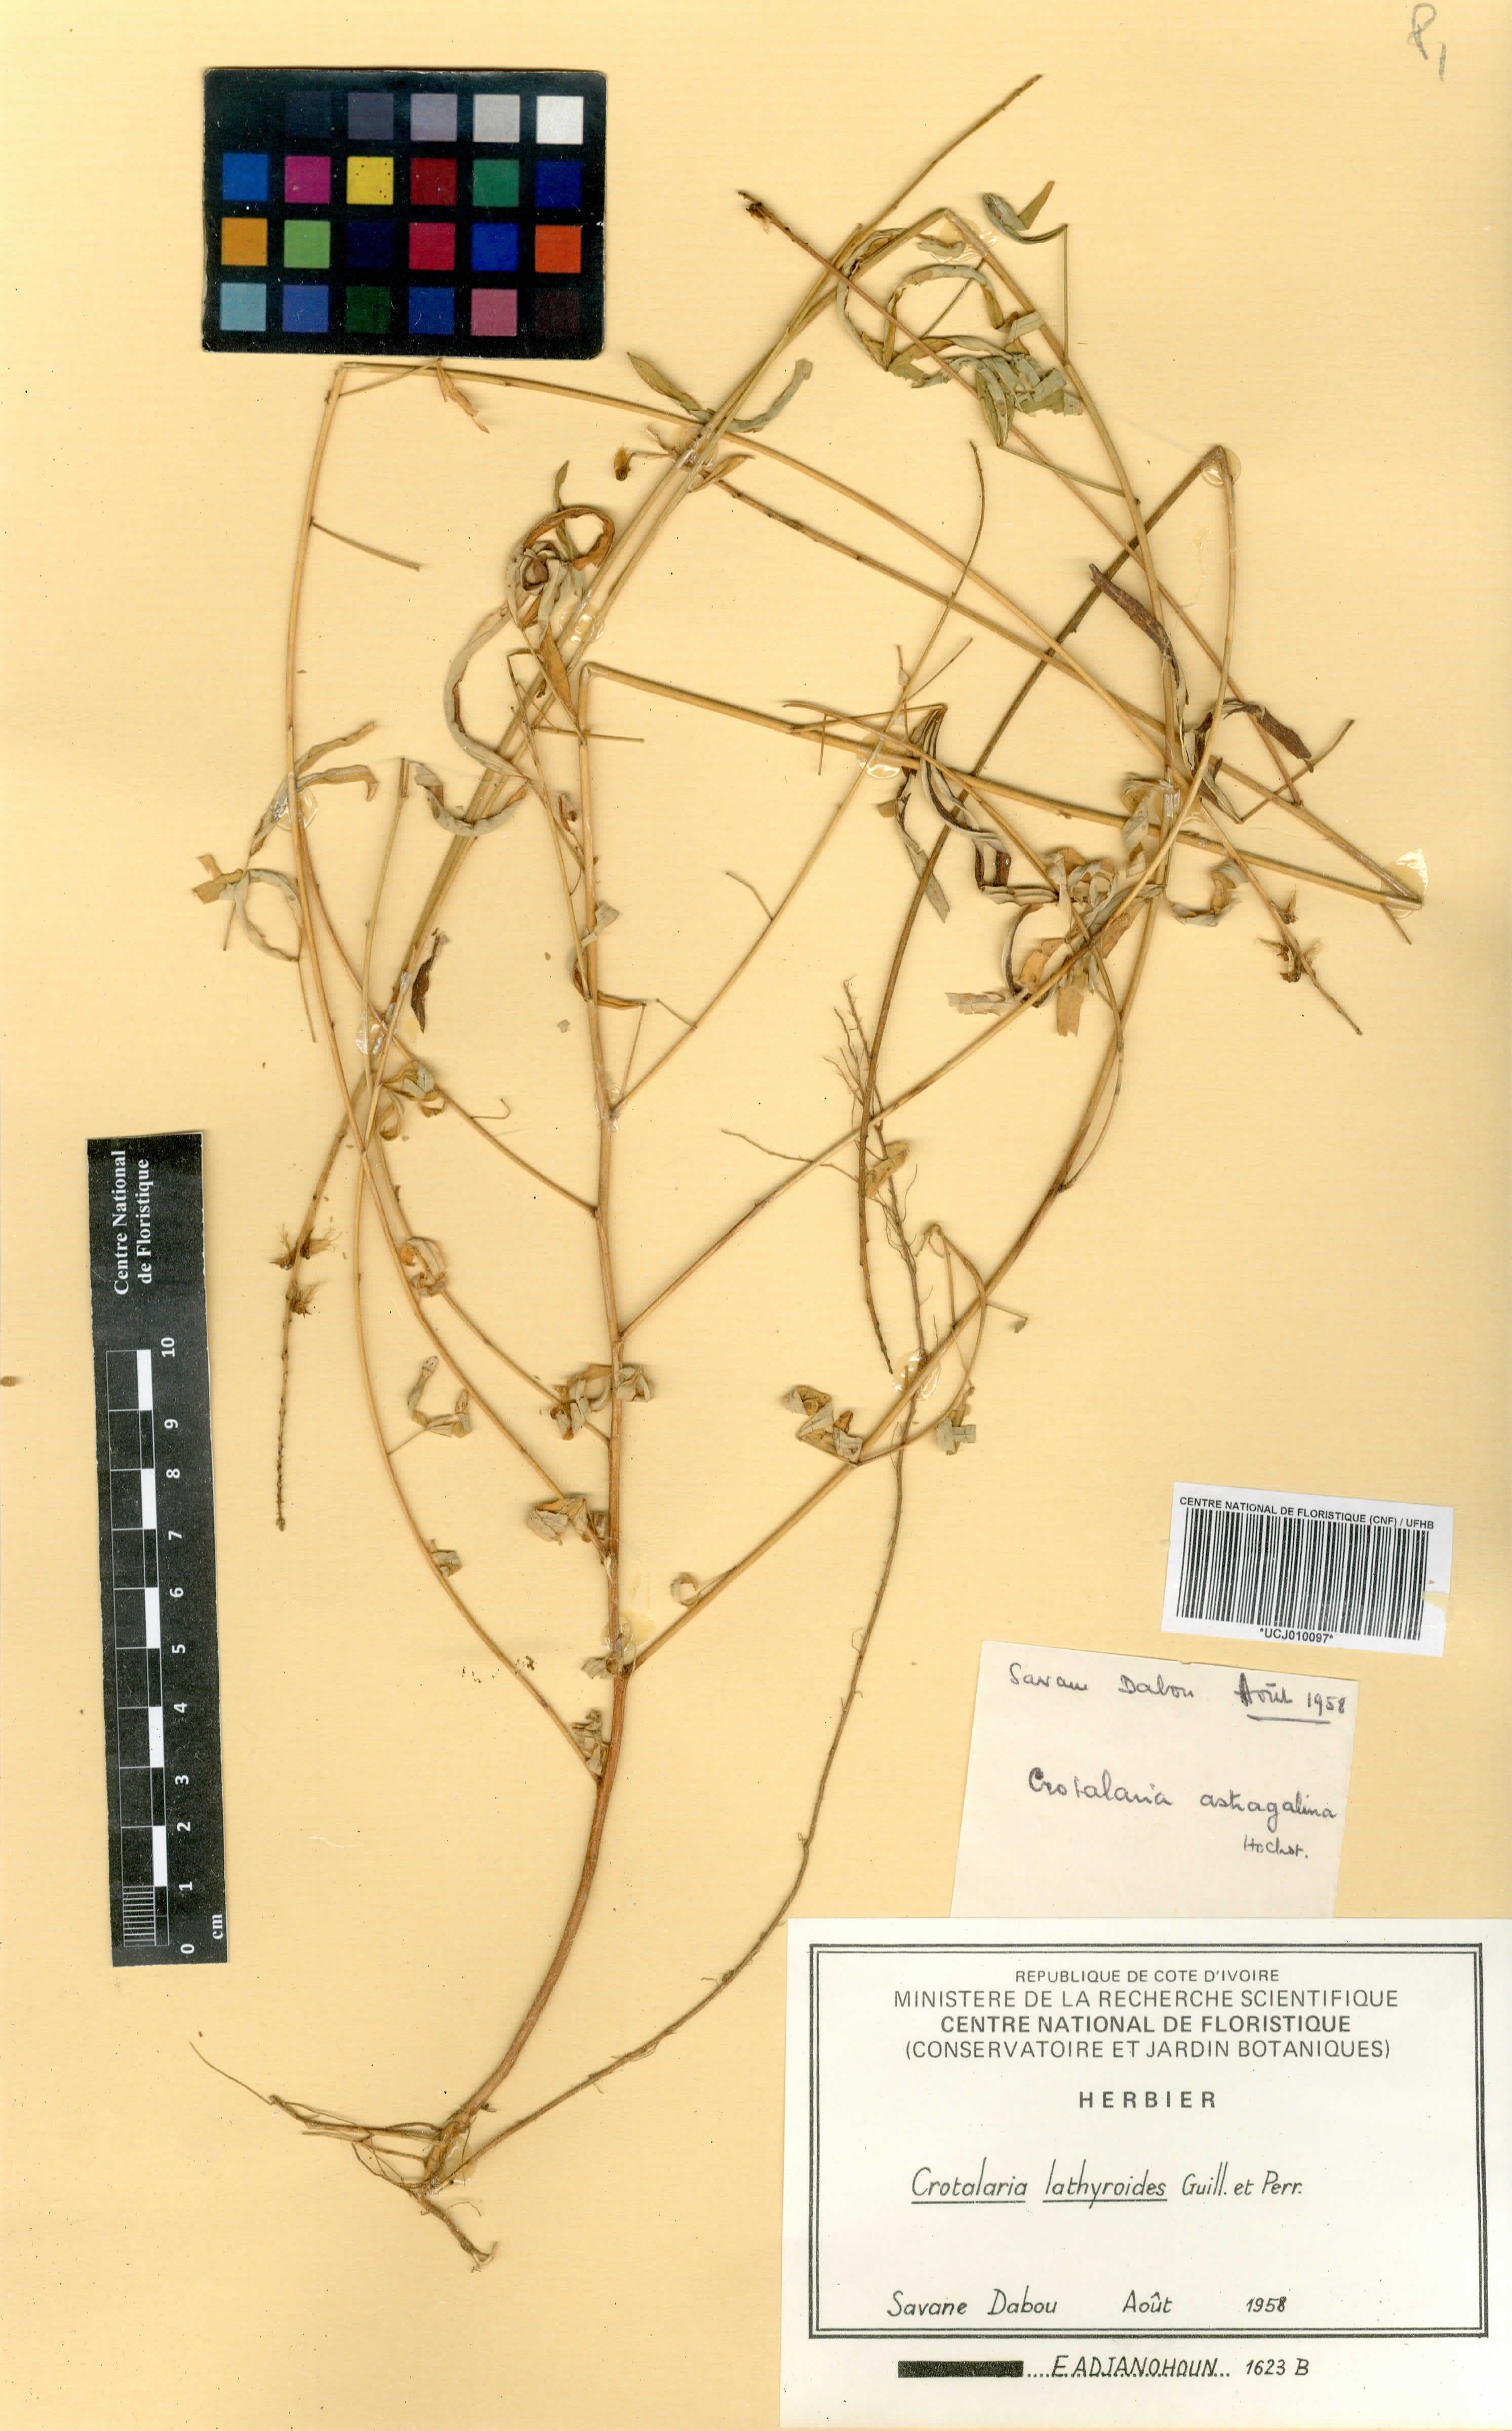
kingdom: Plantae
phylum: Tracheophyta
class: Magnoliopsida
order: Fabales
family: Fabaceae
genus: Crotalaria
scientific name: Crotalaria lathyroides
